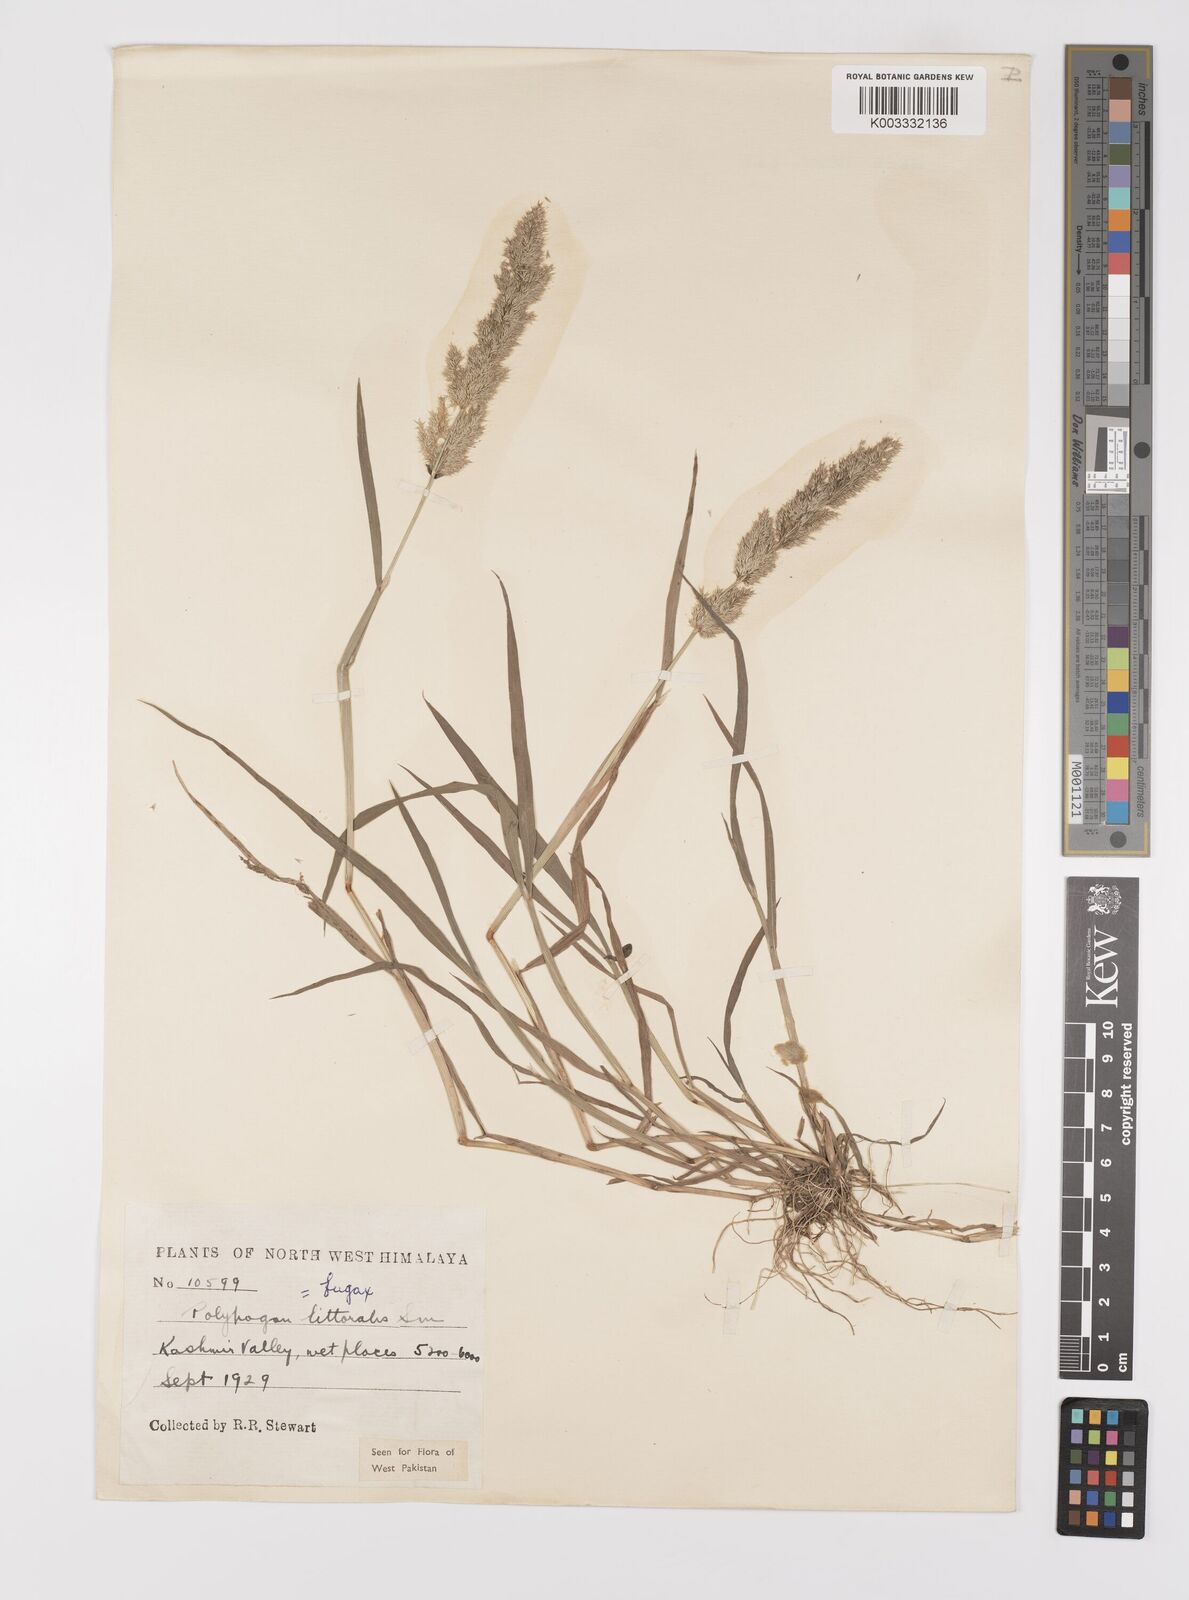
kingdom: Plantae
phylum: Tracheophyta
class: Liliopsida
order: Poales
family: Poaceae
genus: Polypogon
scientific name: Polypogon fugax
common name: Asia minor bluegrass
